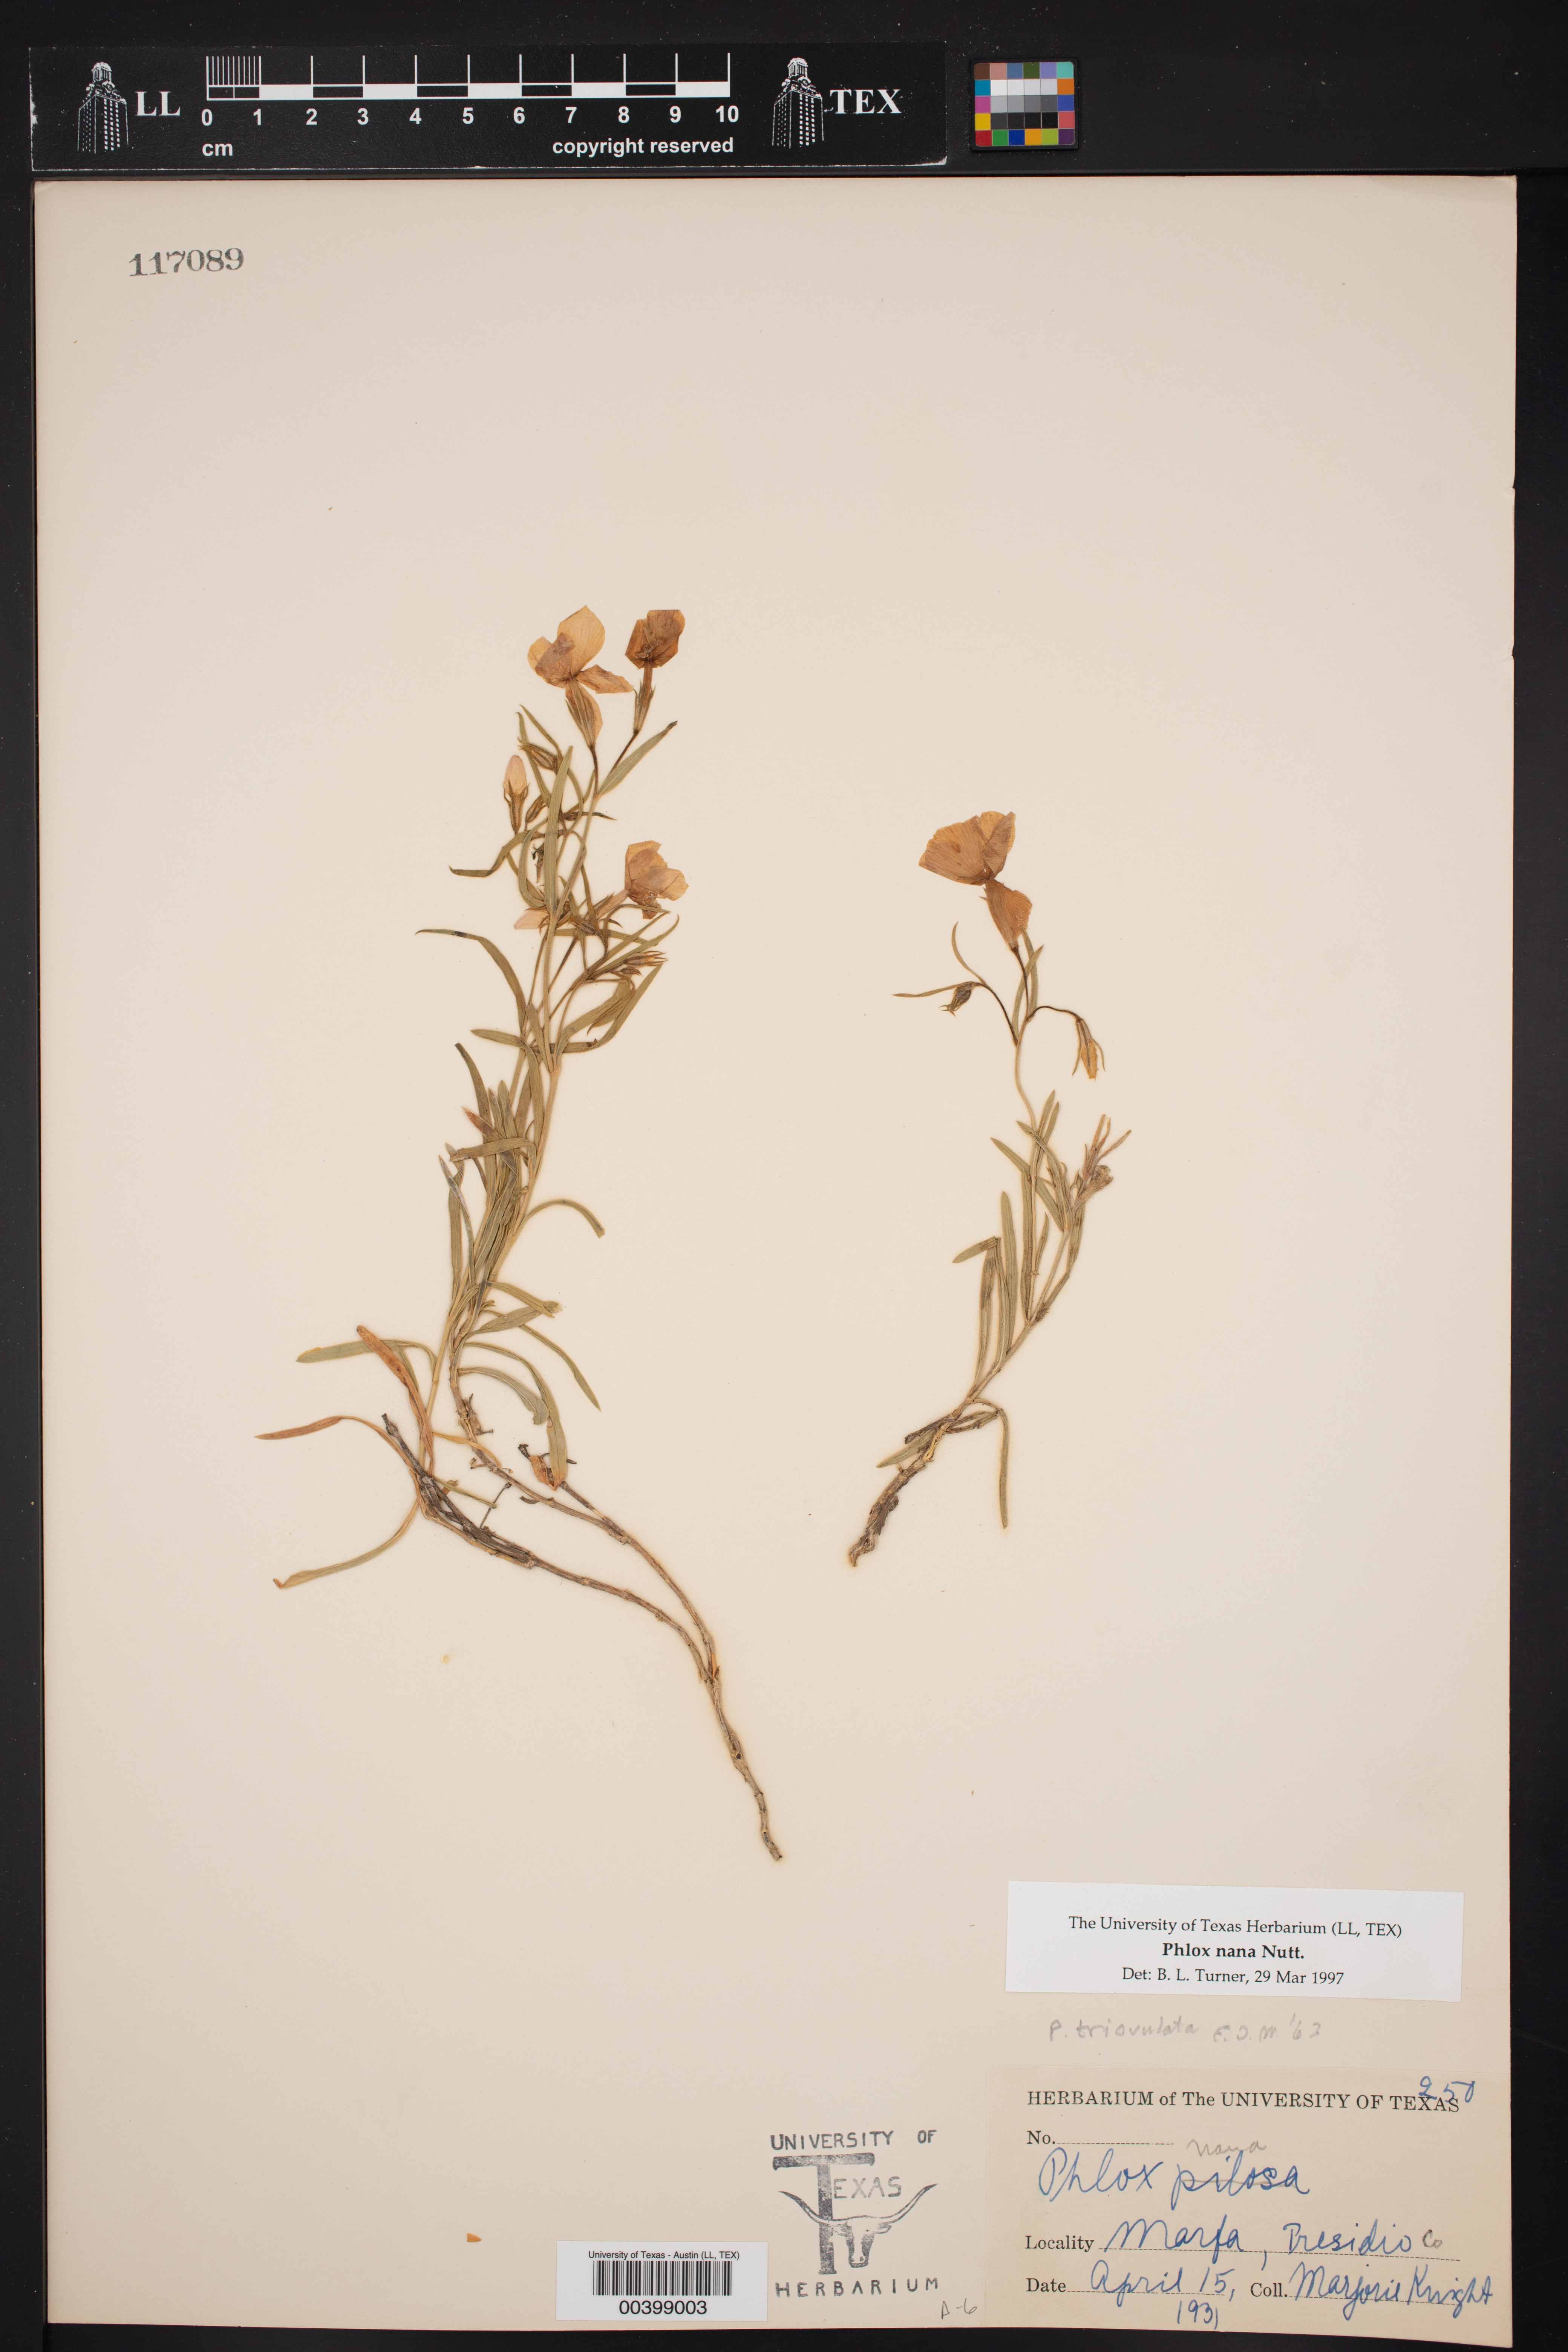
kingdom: Plantae
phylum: Tracheophyta
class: Magnoliopsida
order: Ericales
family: Polemoniaceae
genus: Phlox
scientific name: Phlox nana
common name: Santa fe phlox
